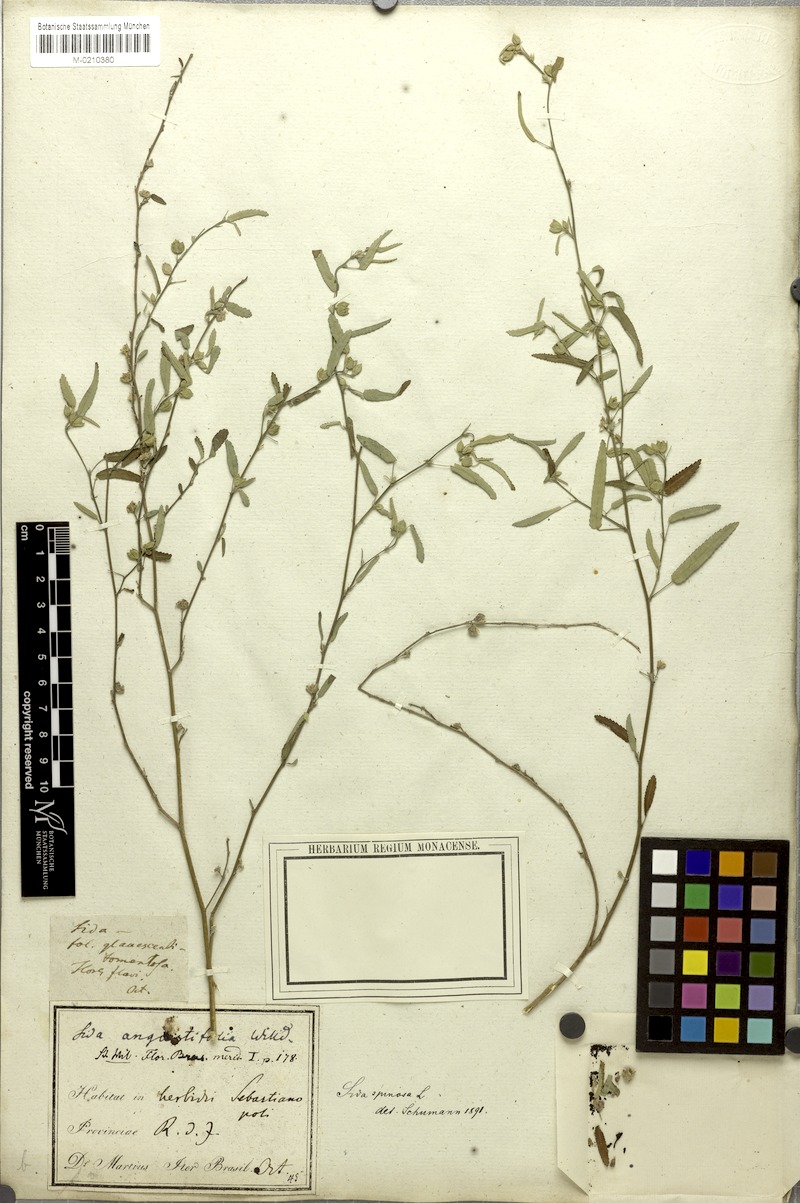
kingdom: Plantae
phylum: Tracheophyta
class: Magnoliopsida
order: Malvales
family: Malvaceae
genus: Sida
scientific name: Sida spinosa
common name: Prickly fanpetals
